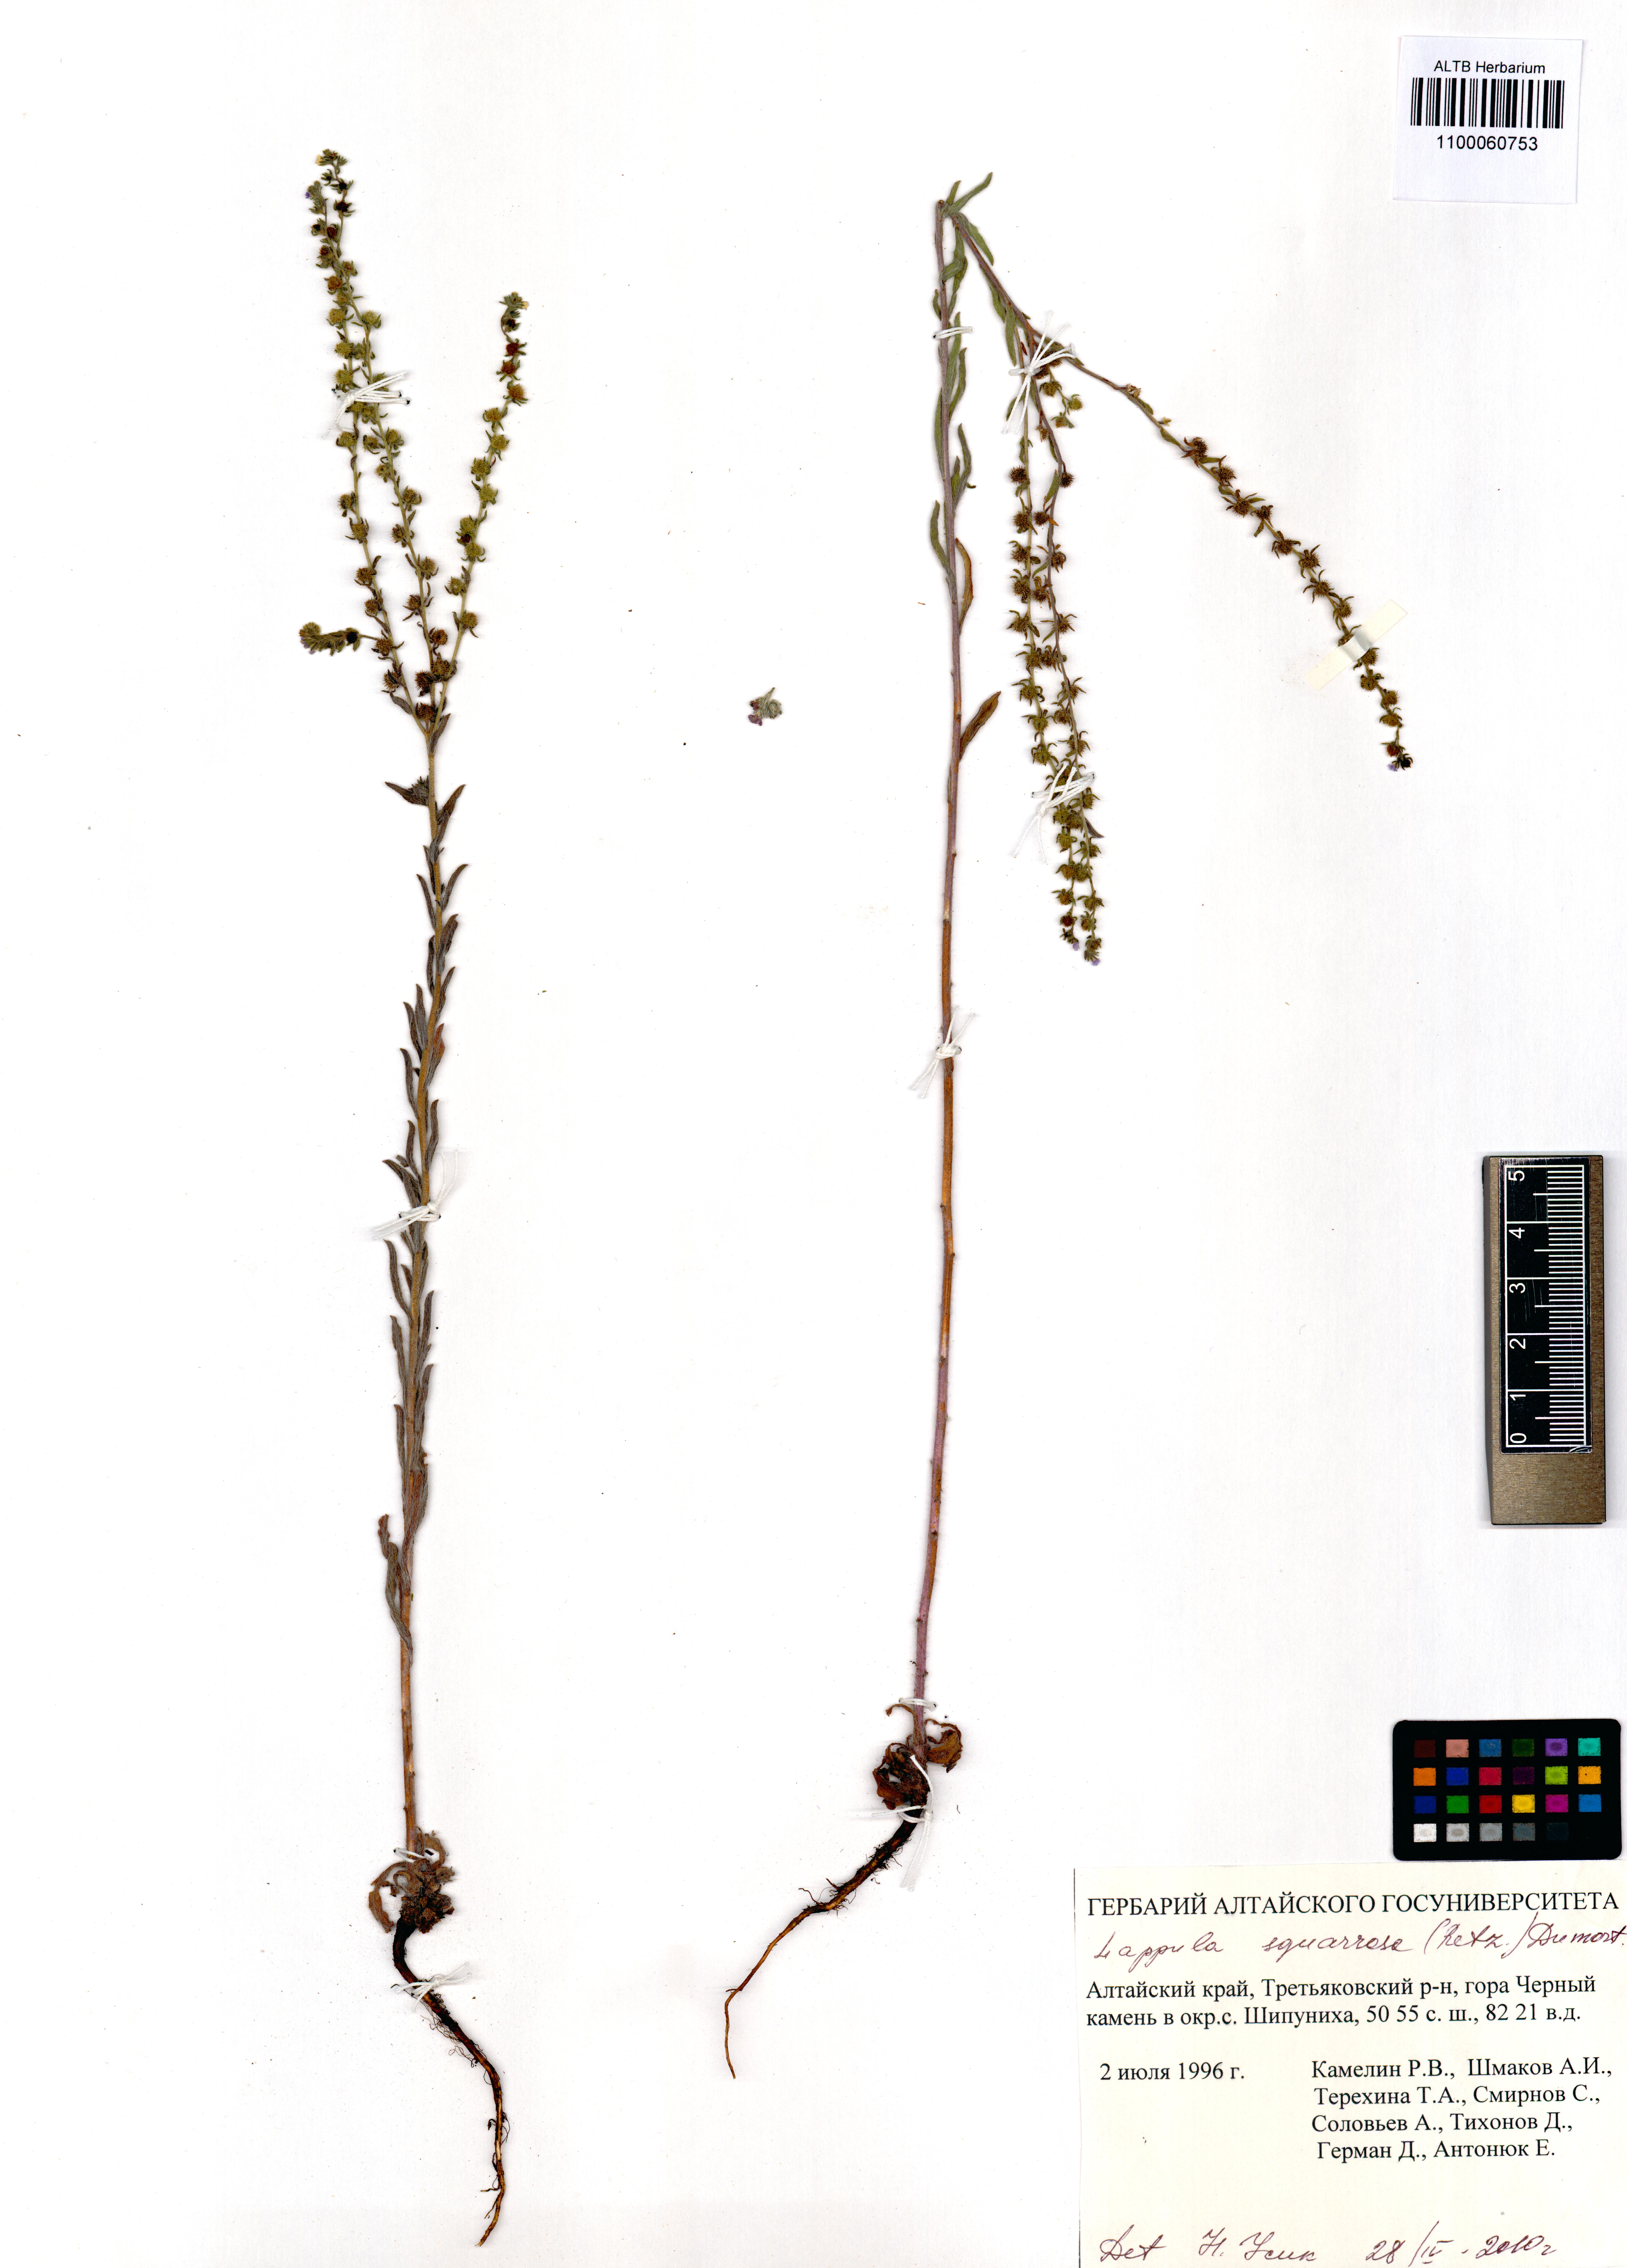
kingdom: Plantae
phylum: Tracheophyta
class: Magnoliopsida
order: Boraginales
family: Boraginaceae
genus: Lappula
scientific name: Lappula squarrosa
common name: European stickseed
